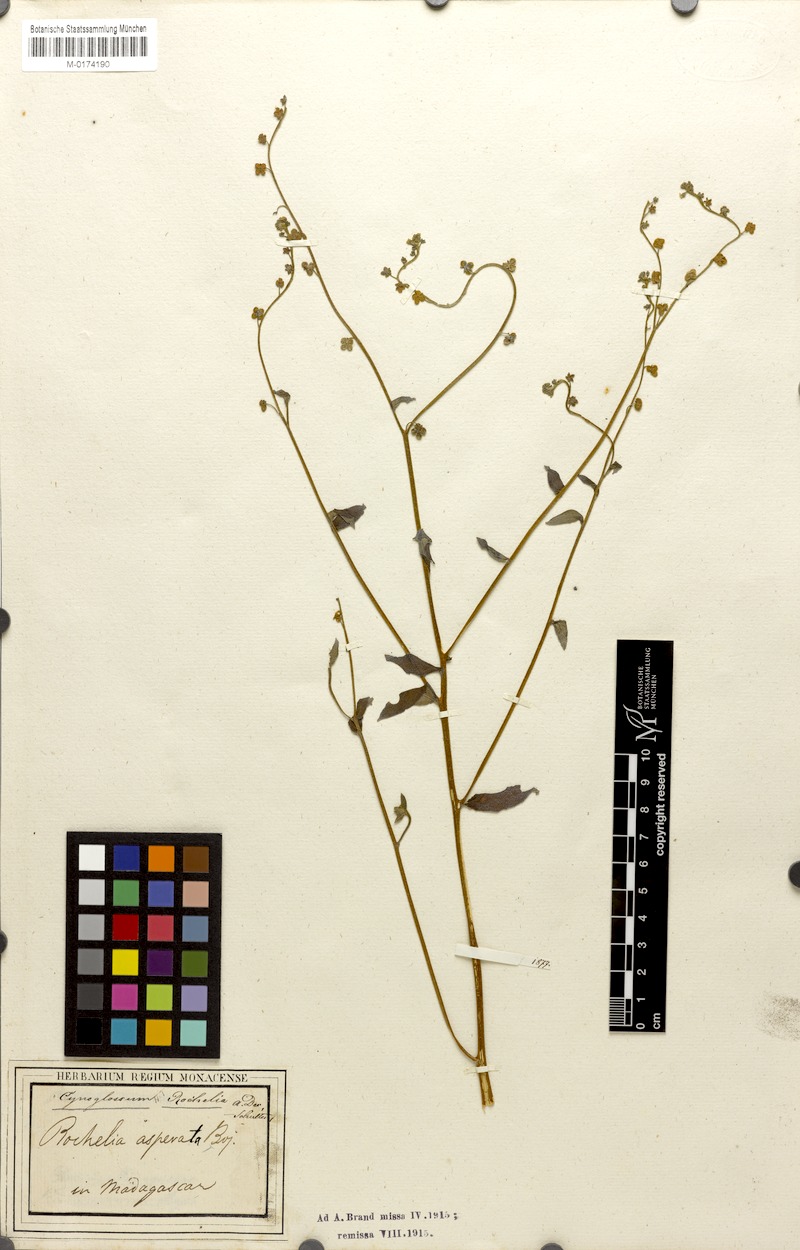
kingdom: Plantae
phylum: Tracheophyta
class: Magnoliopsida
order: Boraginales
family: Boraginaceae
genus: Paracynoglossum
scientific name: Paracynoglossum lanceolatum
